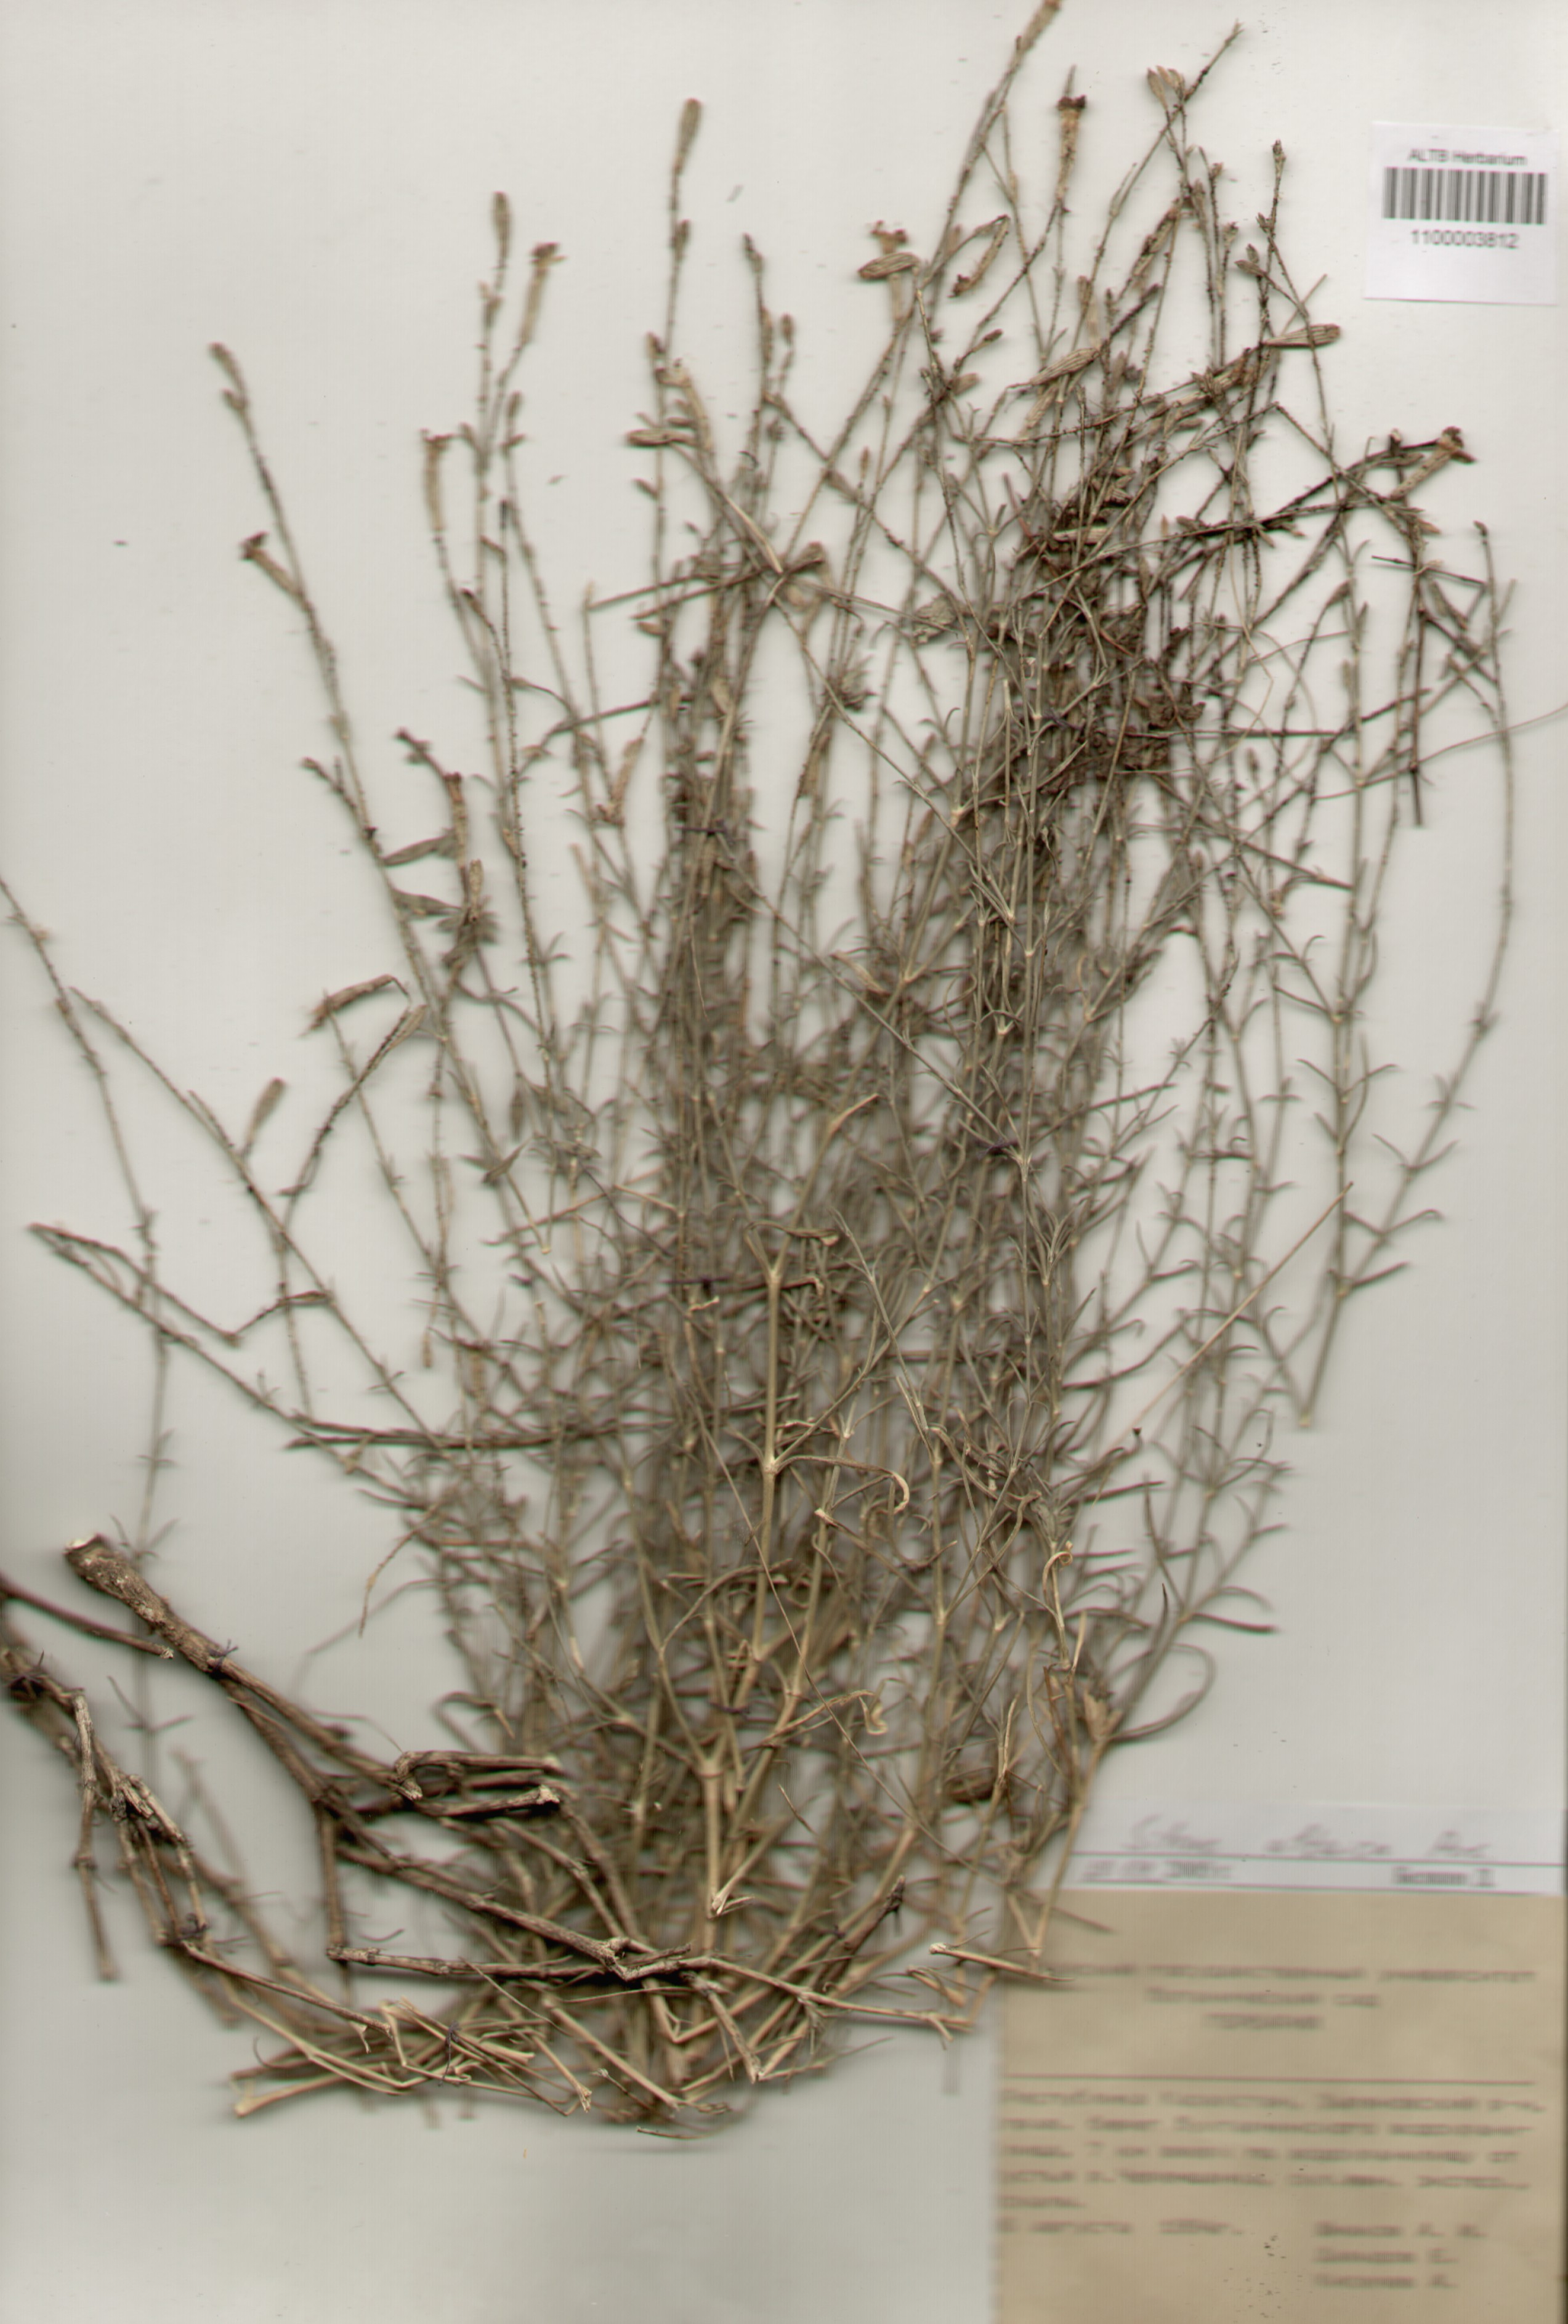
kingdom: Plantae
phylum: Tracheophyta
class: Magnoliopsida
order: Caryophyllales
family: Caryophyllaceae
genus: Silene
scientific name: Silene altaica
